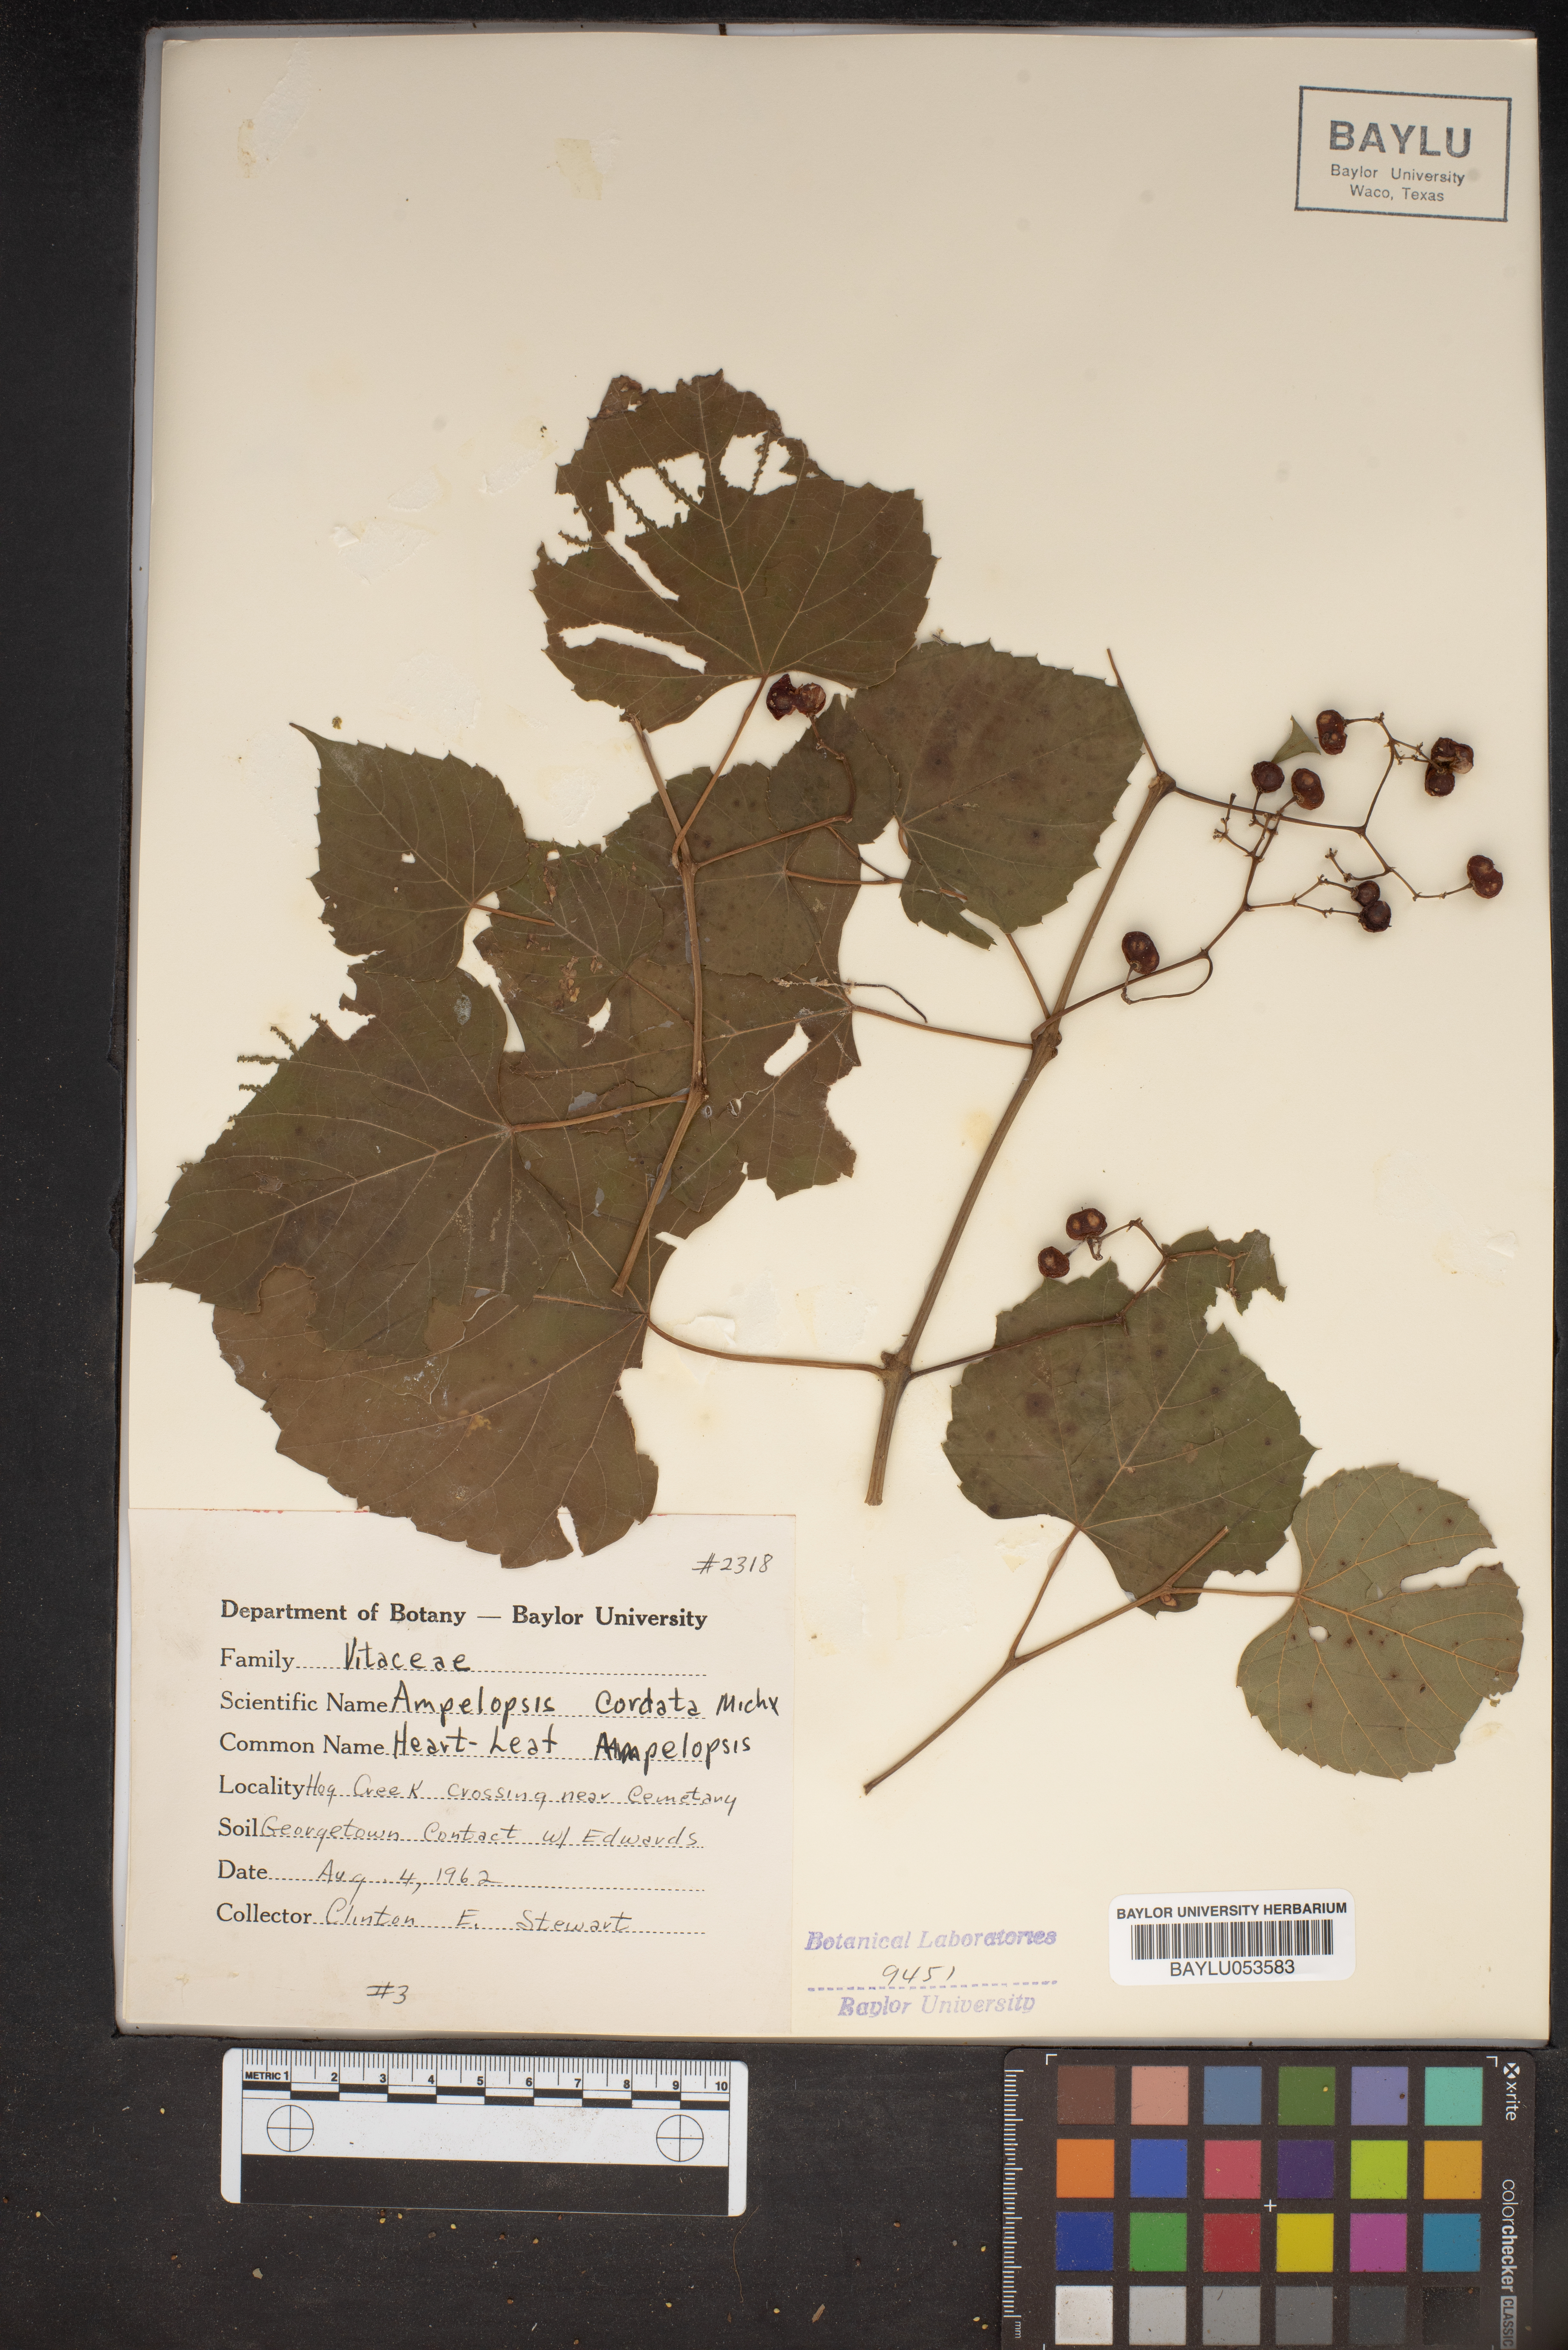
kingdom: Plantae
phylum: Tracheophyta
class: Magnoliopsida
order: Vitales
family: Vitaceae
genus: Ampelopsis
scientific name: Ampelopsis cordata
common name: Heart-leaf ampelopsis
